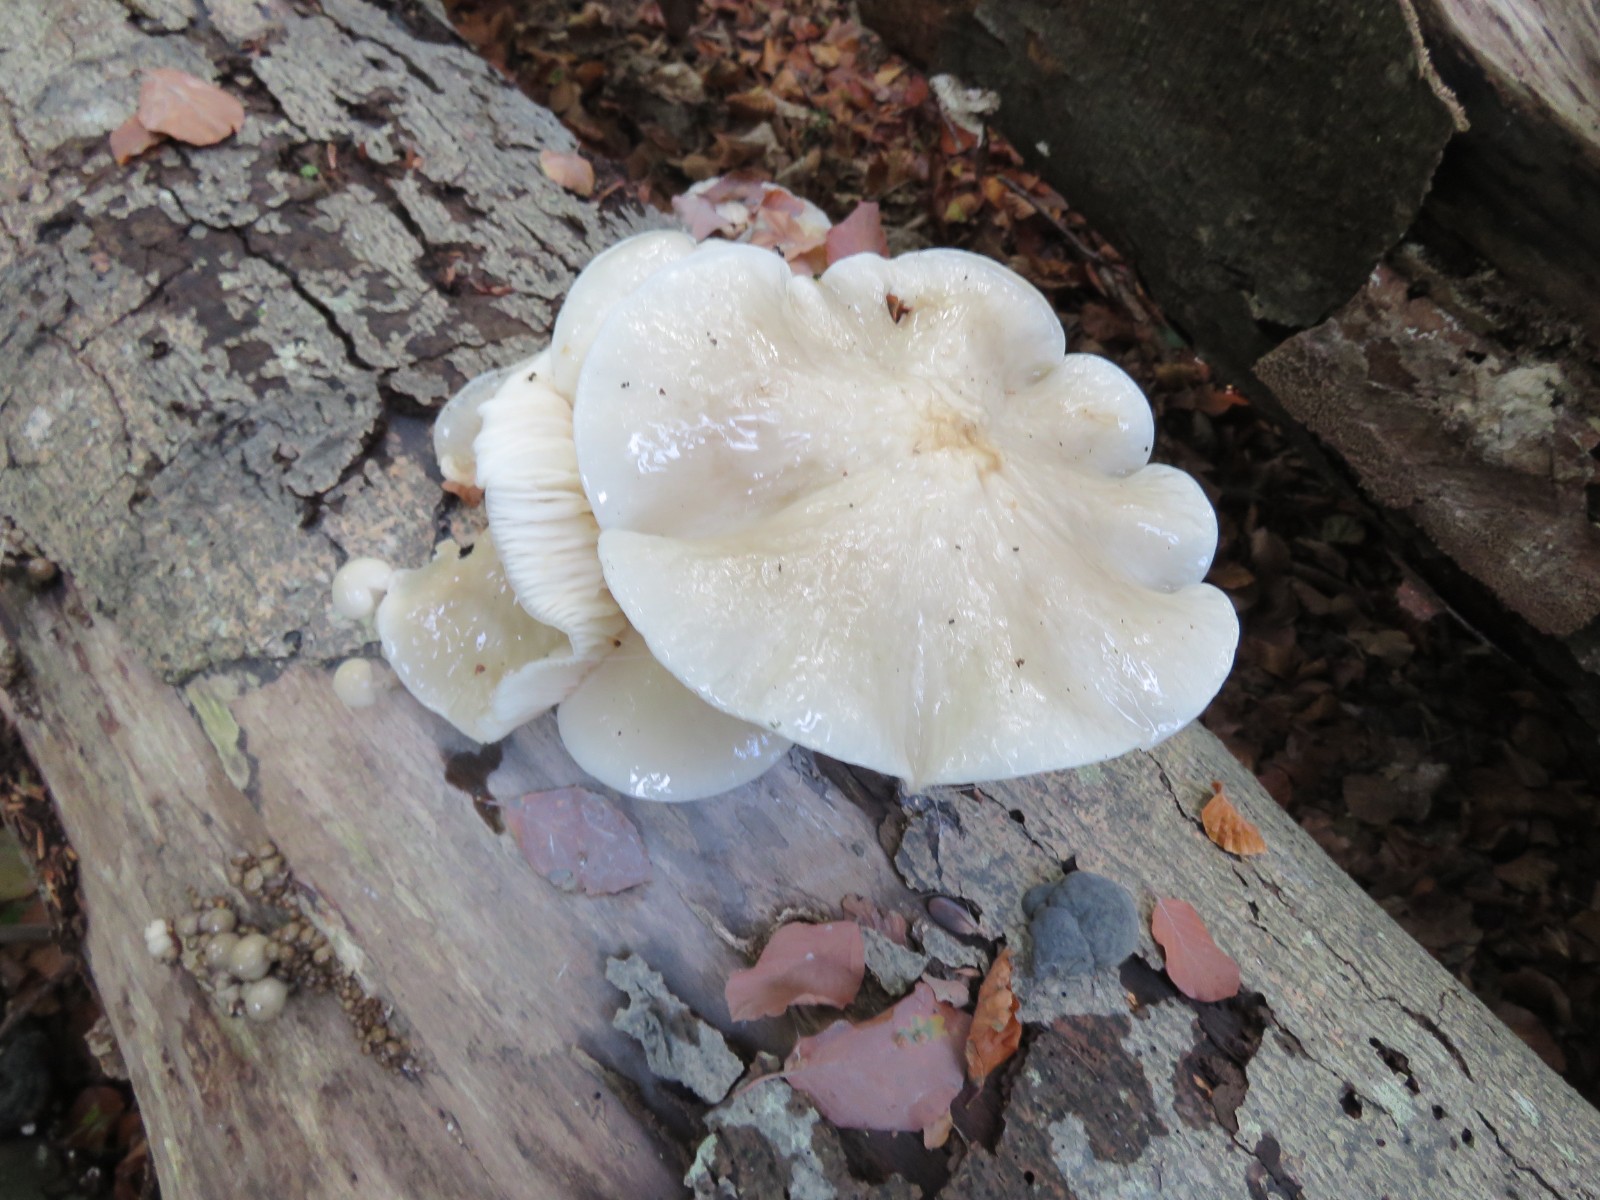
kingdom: Fungi
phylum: Basidiomycota
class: Agaricomycetes
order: Agaricales
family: Physalacriaceae
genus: Mucidula
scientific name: Mucidula mucida
